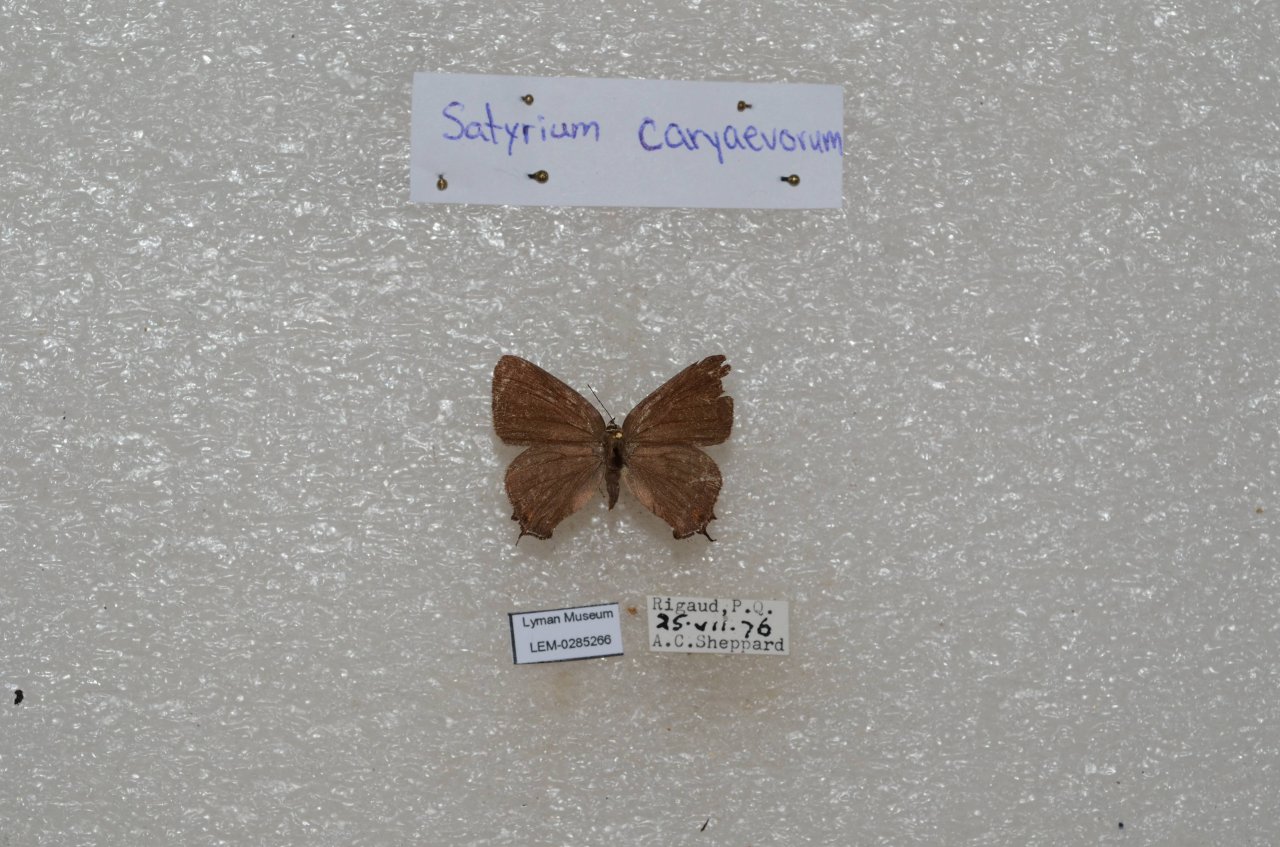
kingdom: Animalia
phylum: Arthropoda
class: Insecta
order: Lepidoptera
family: Lycaenidae
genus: Satyrium
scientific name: Satyrium calanus
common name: Banded Hairstreak
